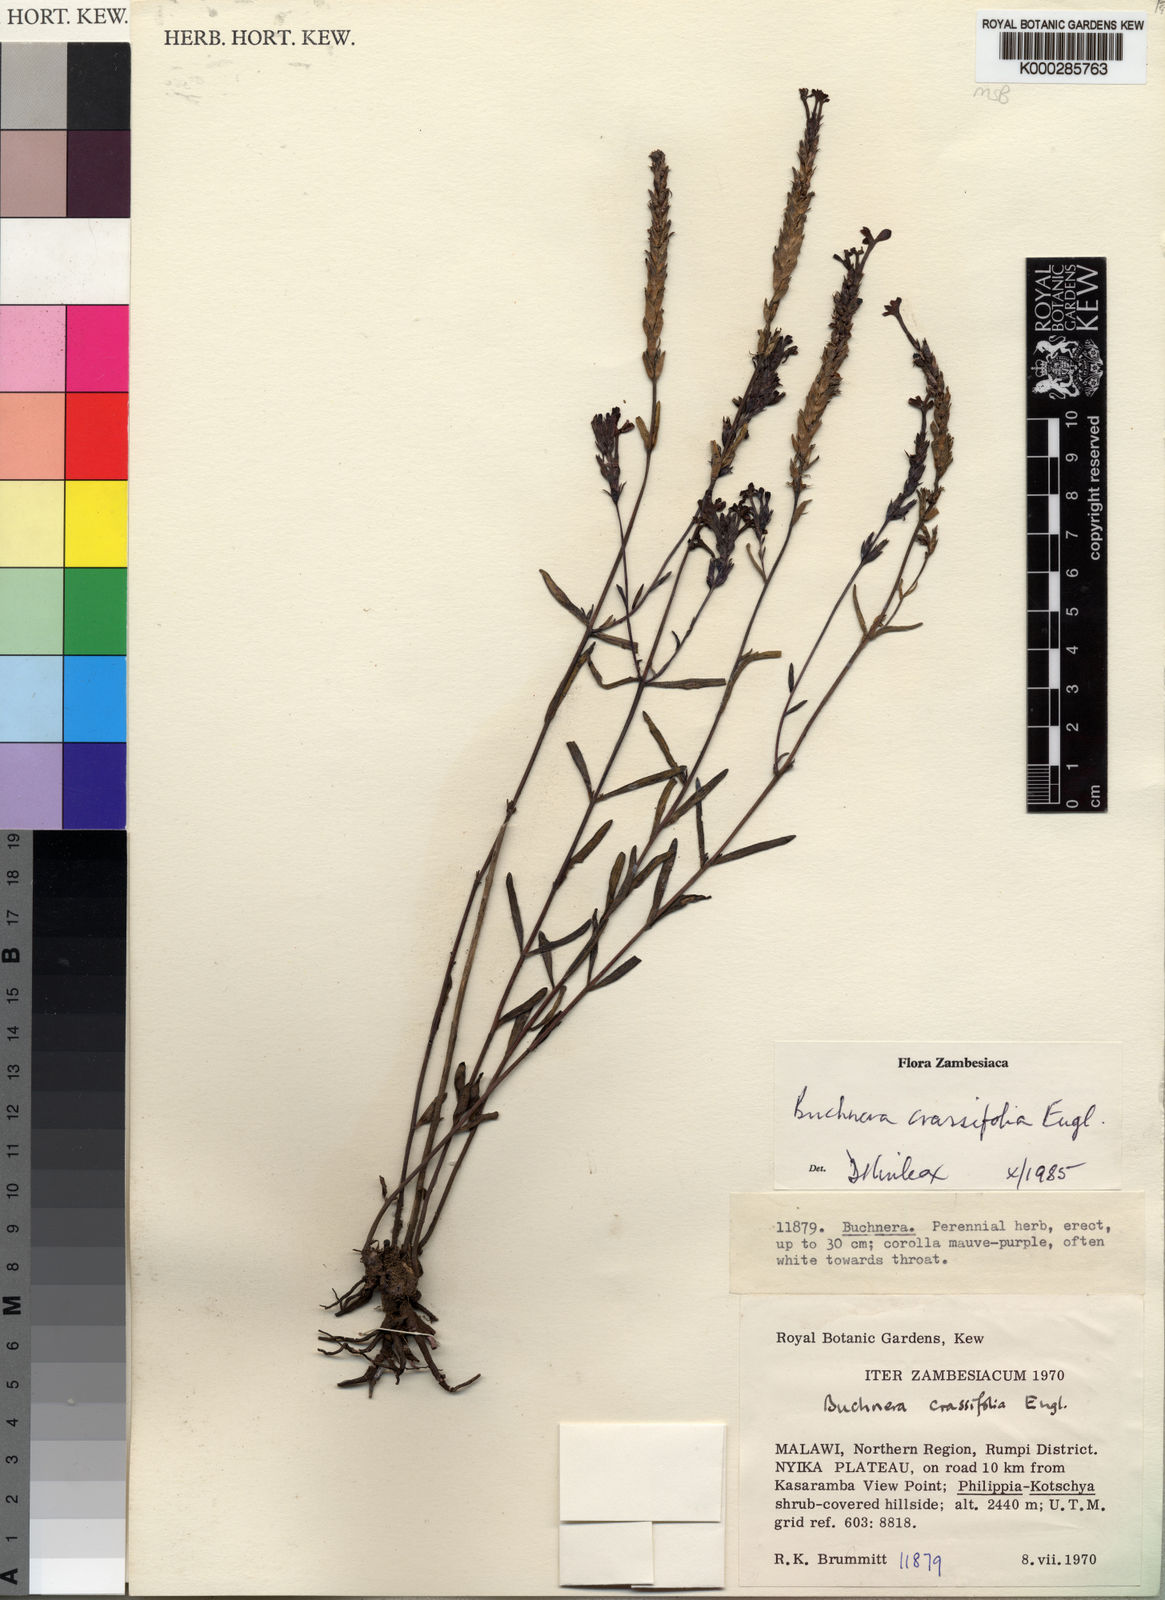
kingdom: Plantae
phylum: Tracheophyta
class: Magnoliopsida
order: Lamiales
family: Orobanchaceae
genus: Buchnera
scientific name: Buchnera rungwensis
